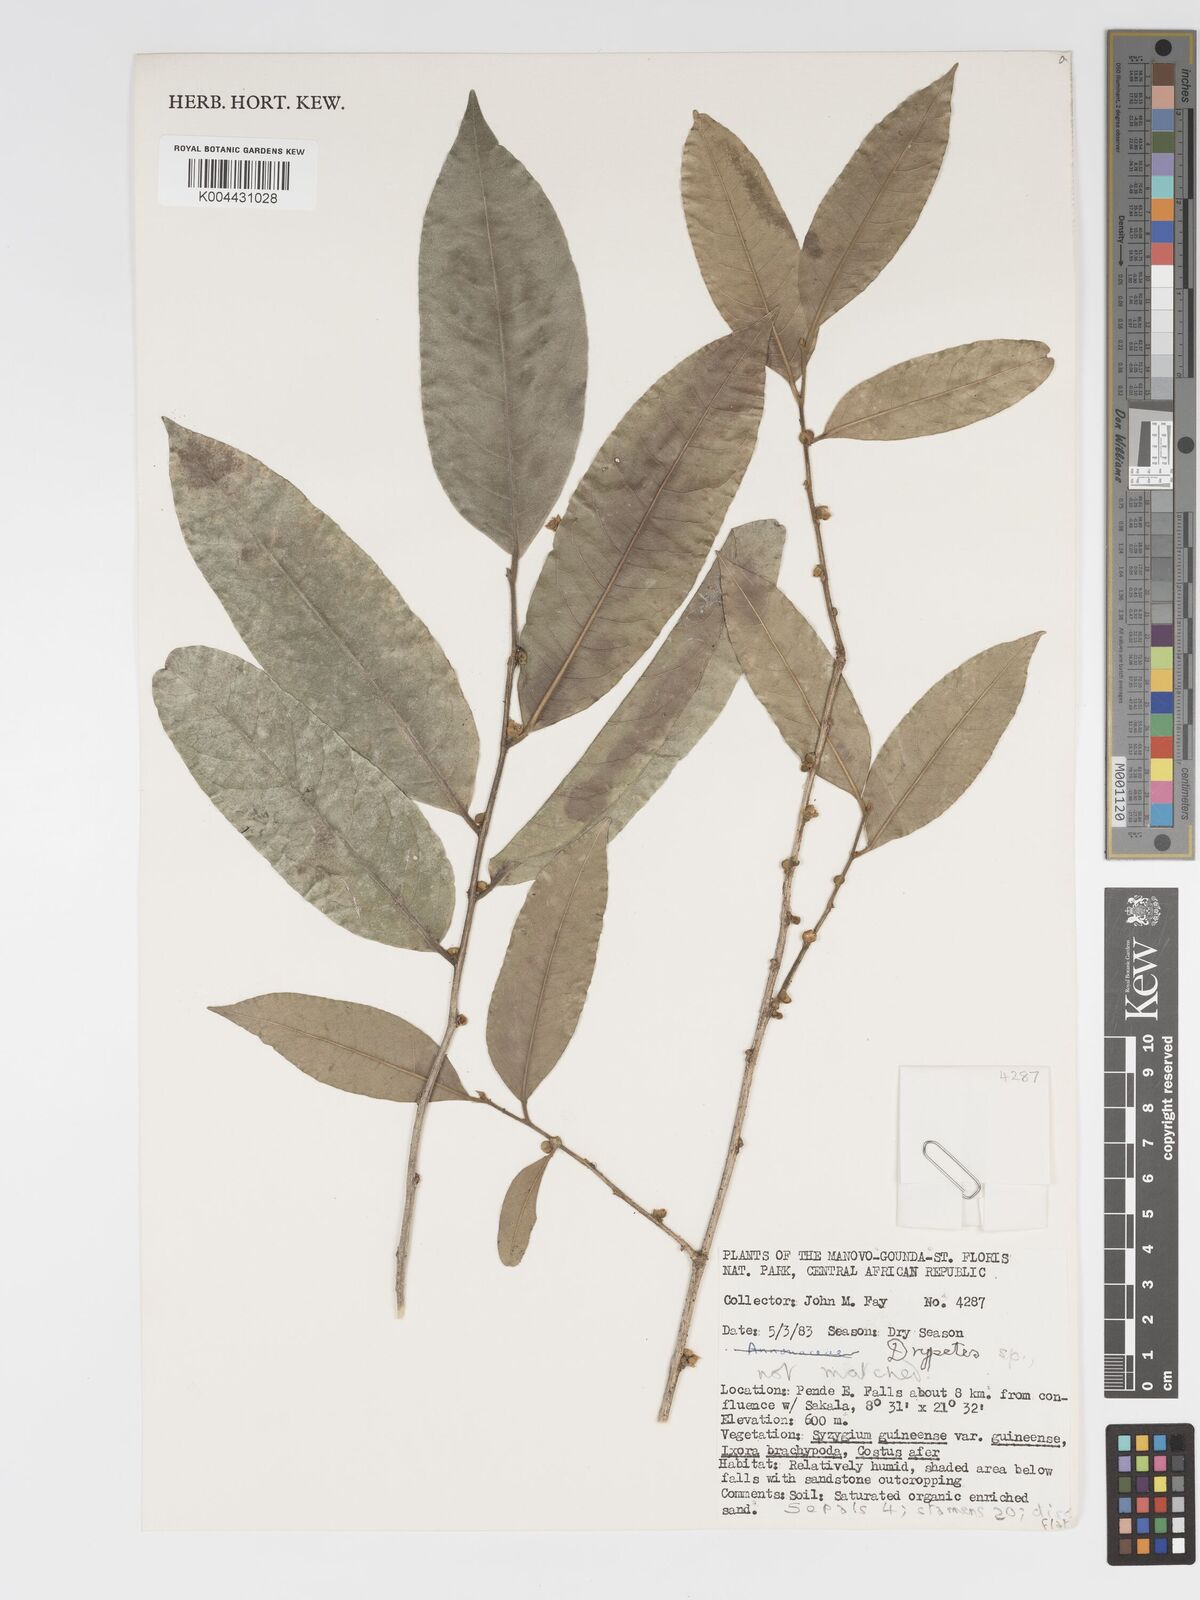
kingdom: Plantae
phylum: Tracheophyta
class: Magnoliopsida
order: Malpighiales
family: Putranjivaceae
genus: Drypetes
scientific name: Drypetes
